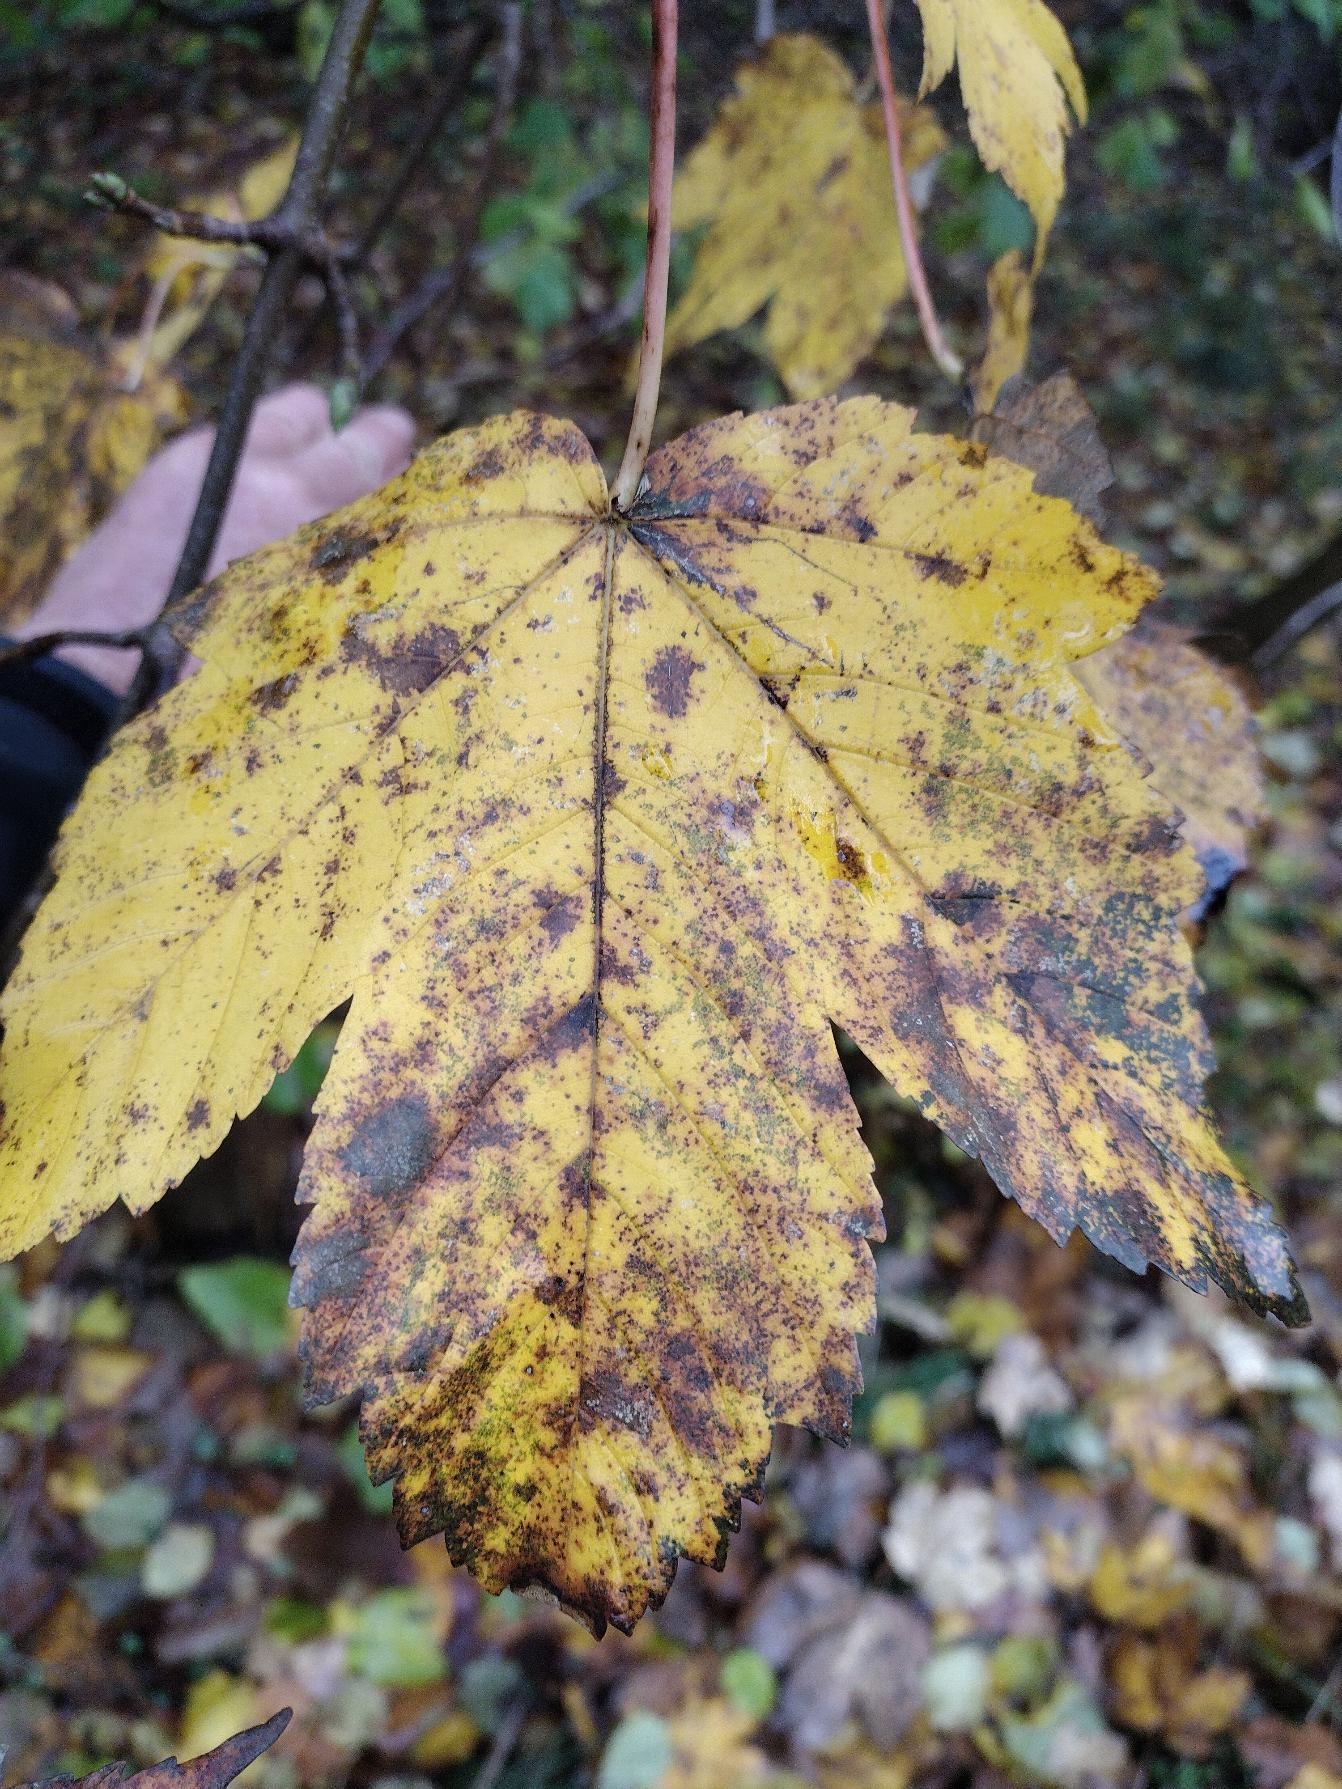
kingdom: Plantae
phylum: Tracheophyta
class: Magnoliopsida
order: Sapindales
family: Sapindaceae
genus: Acer
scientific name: Acer pseudoplatanus
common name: Ahorn
